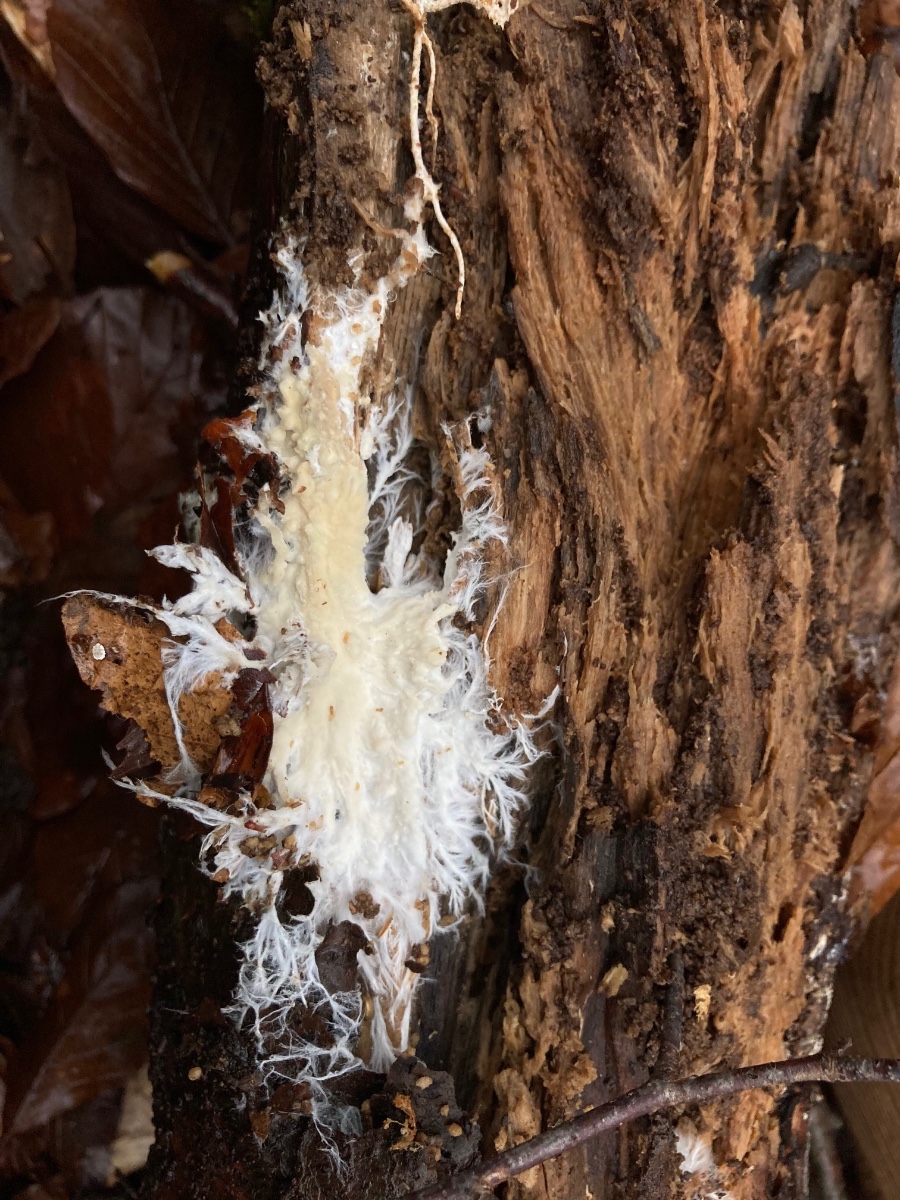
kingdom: Fungi
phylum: Basidiomycota
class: Agaricomycetes
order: Polyporales
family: Phanerochaetaceae
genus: Phanerochaete
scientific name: Phanerochaete velutina
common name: dunet randtråd
